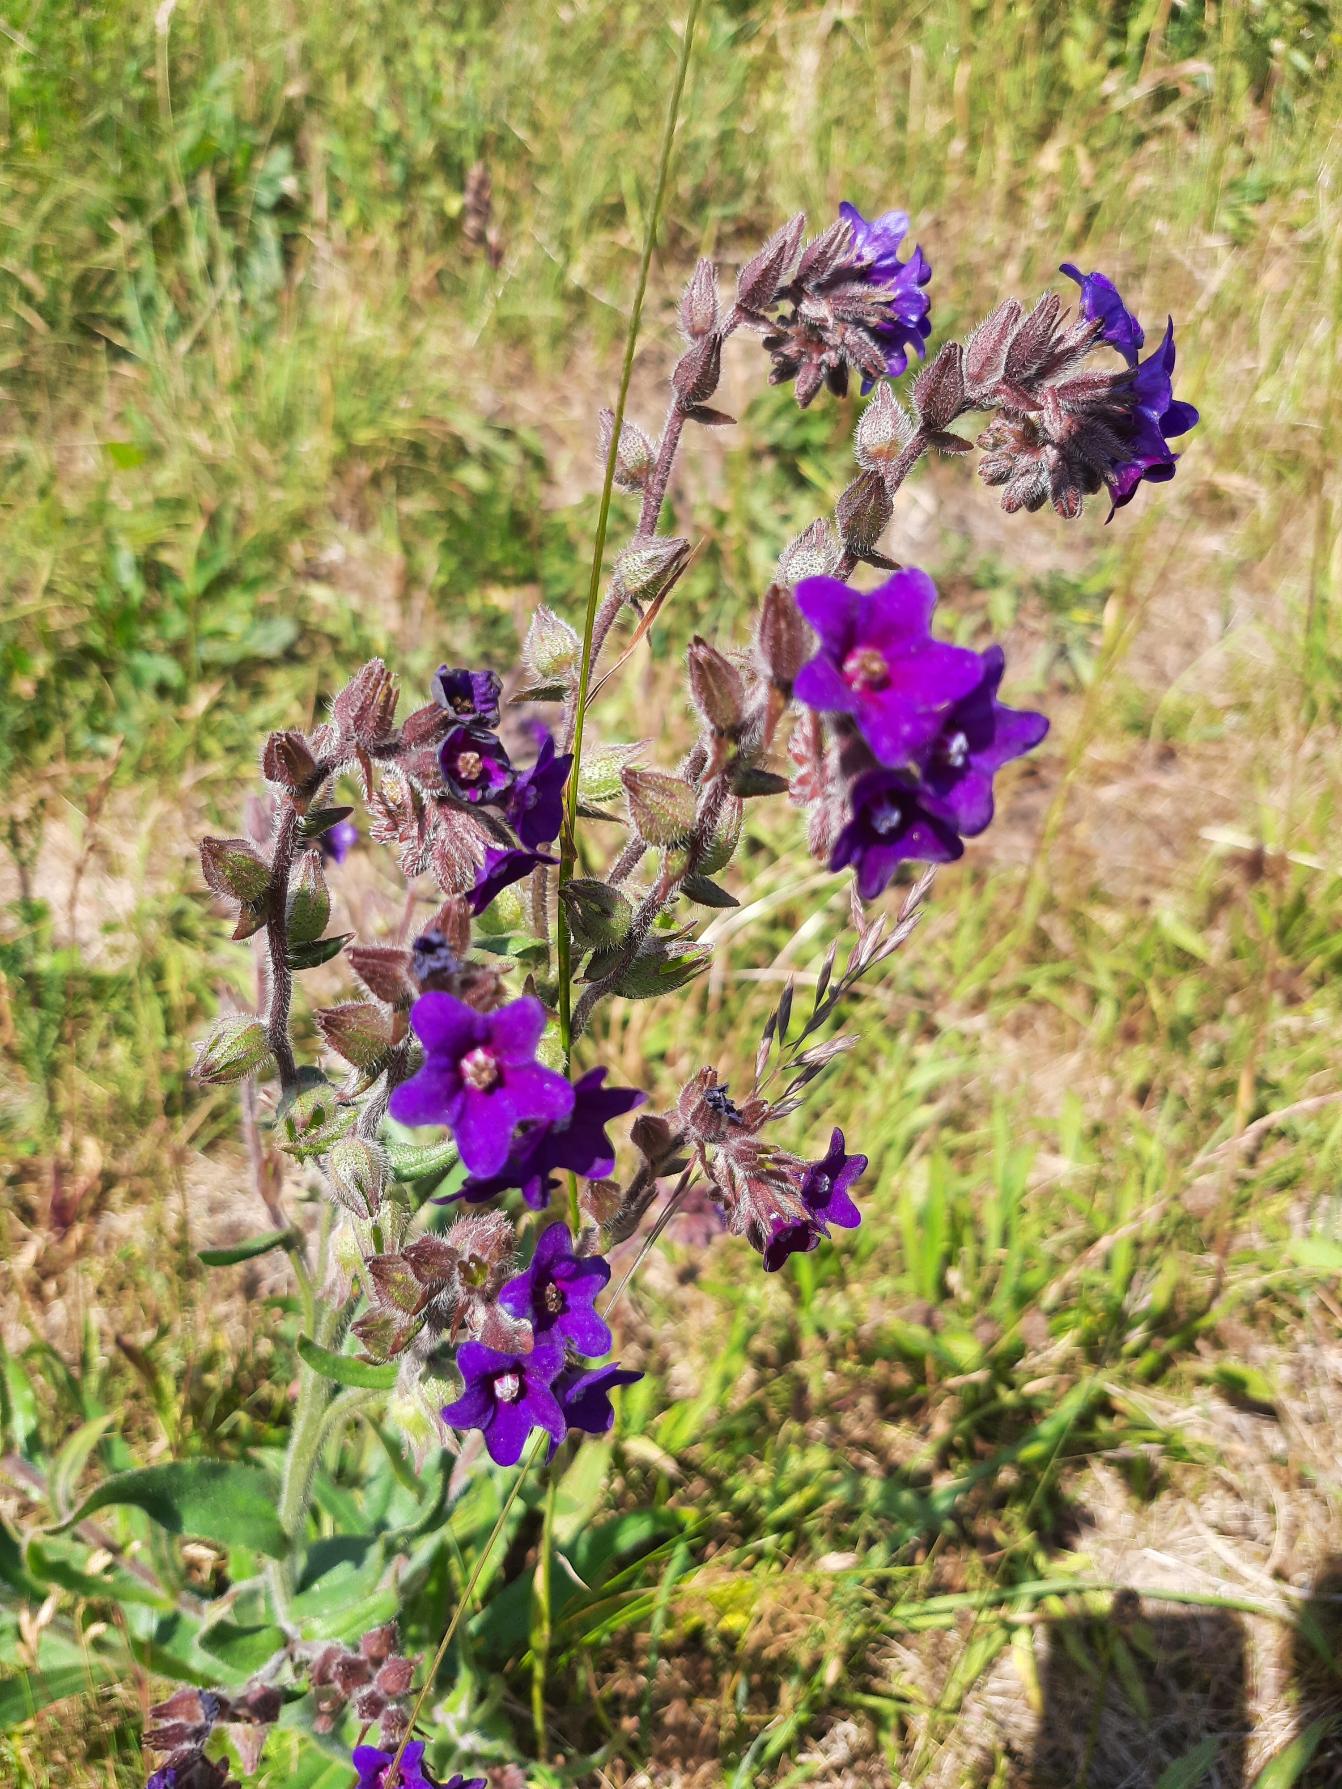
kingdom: Plantae
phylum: Tracheophyta
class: Magnoliopsida
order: Boraginales
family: Boraginaceae
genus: Anchusa
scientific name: Anchusa officinalis
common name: Læge-oksetunge
